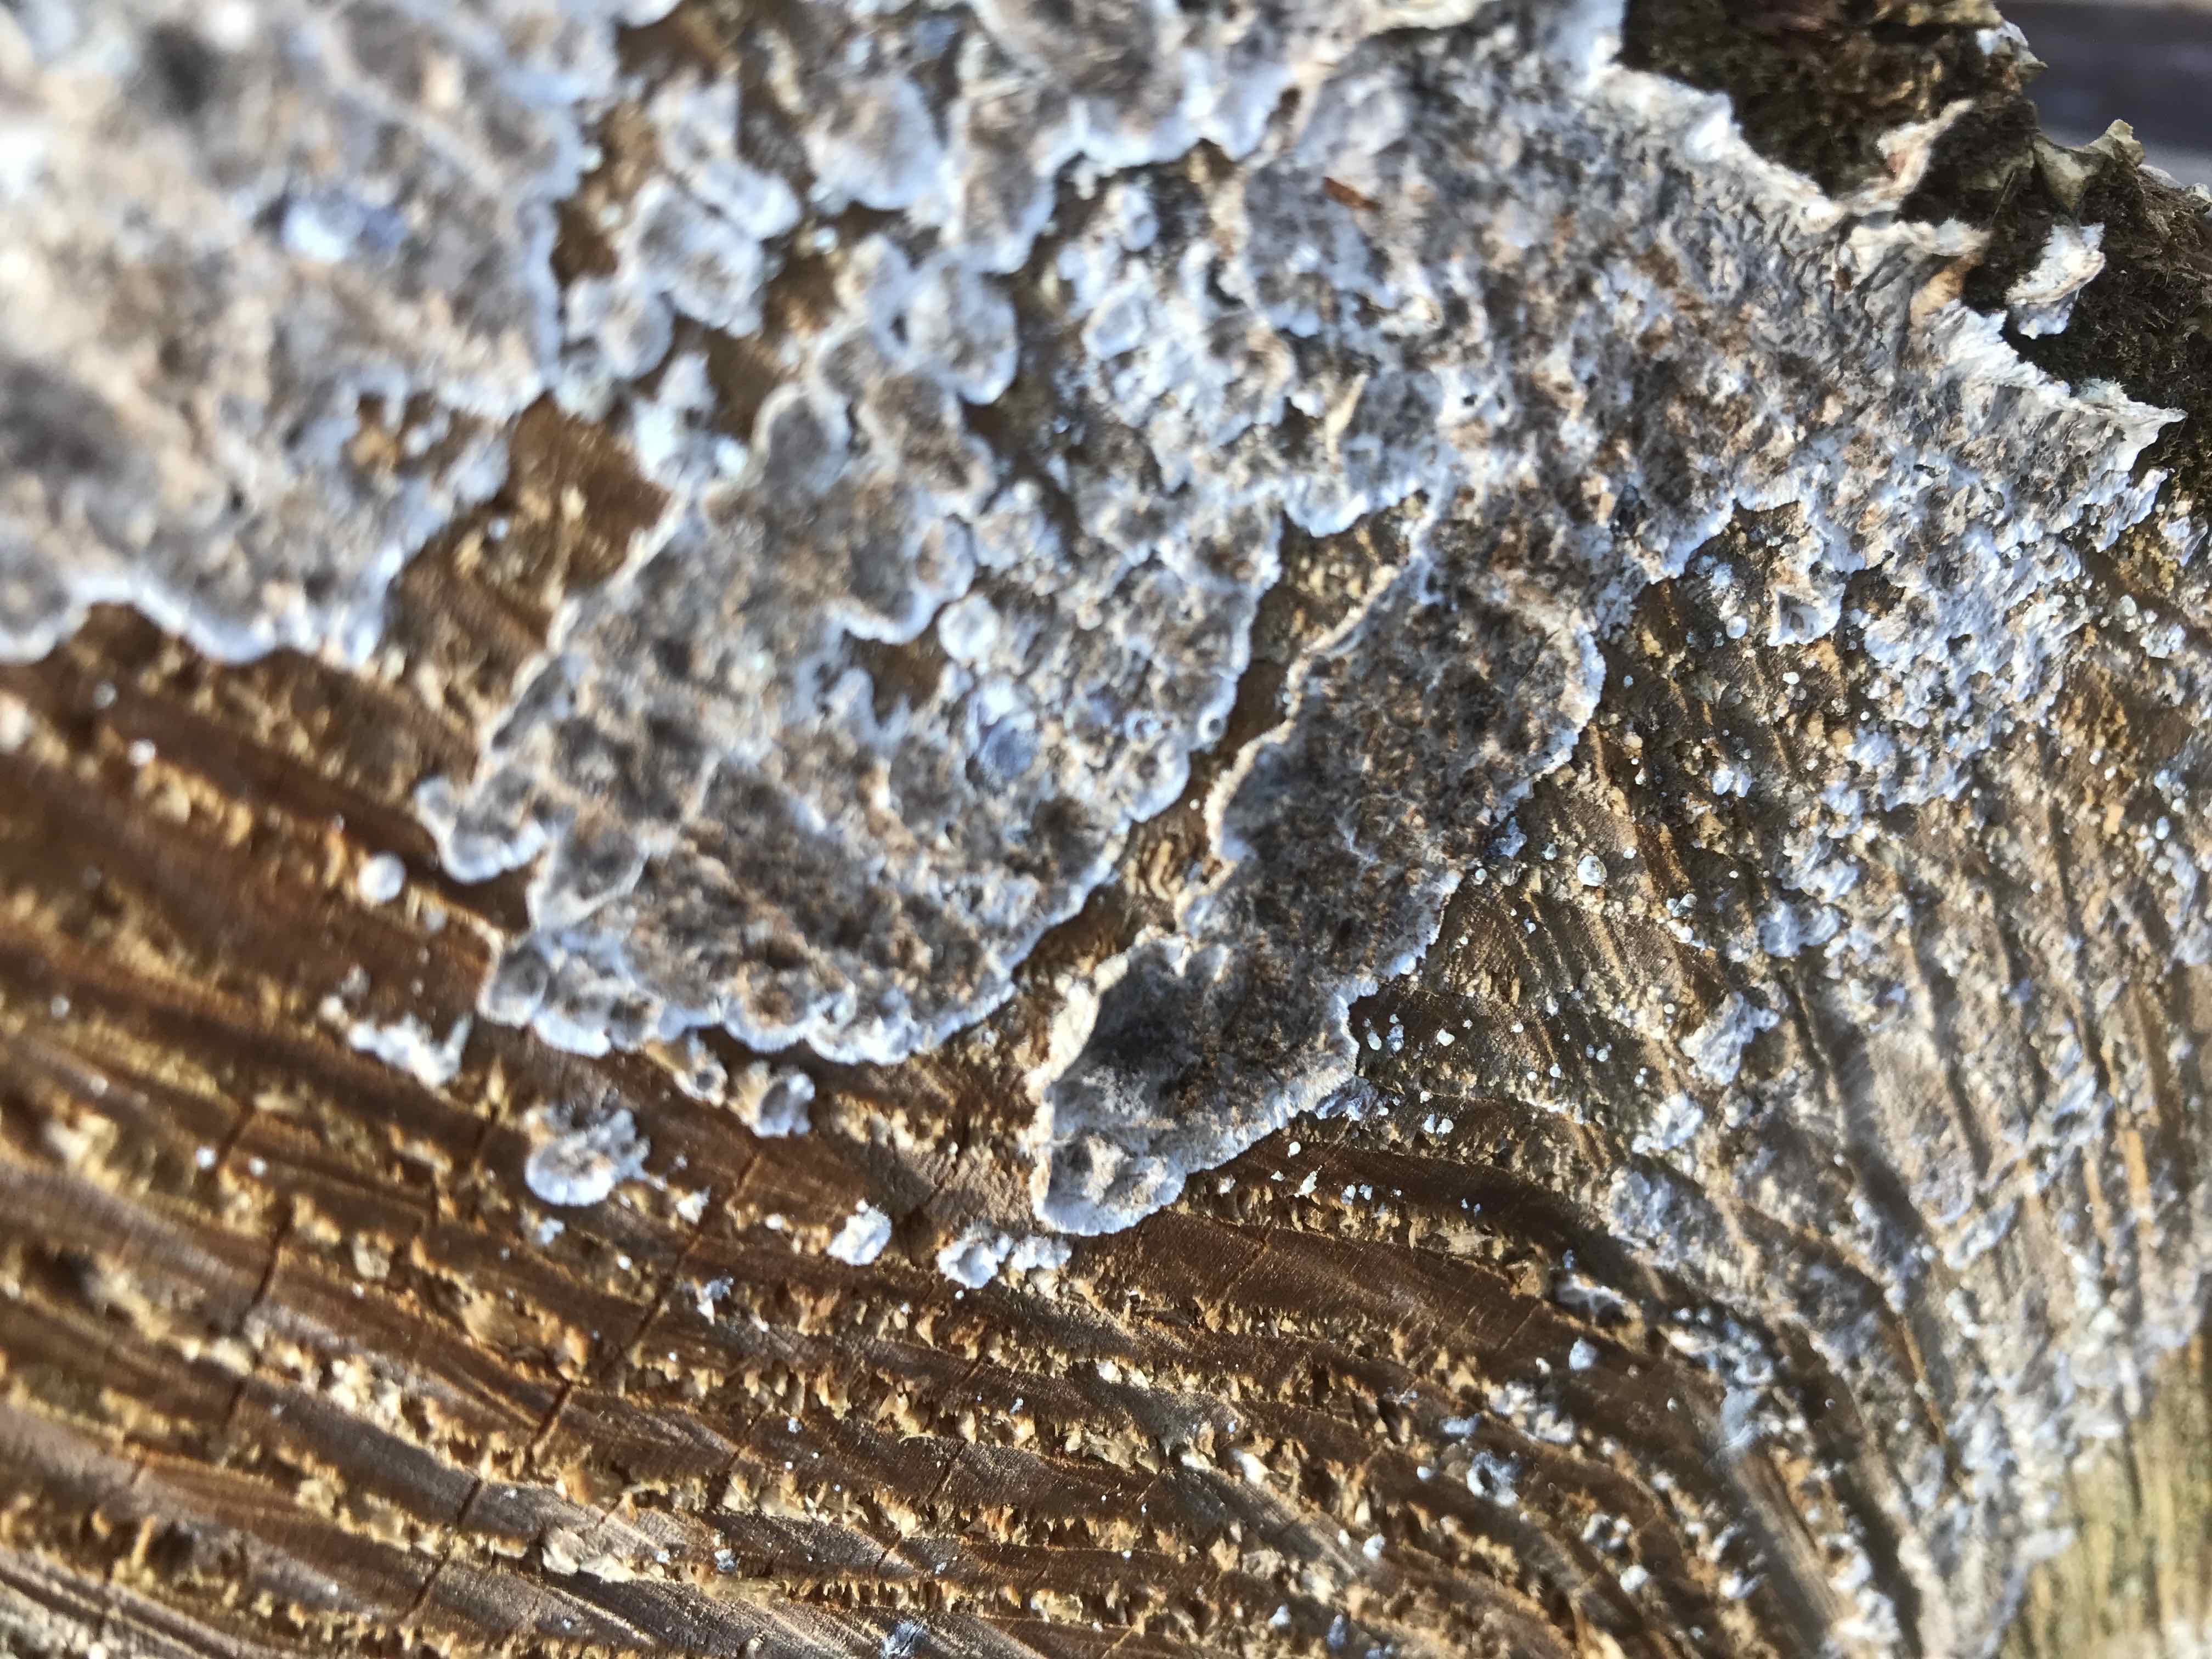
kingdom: Fungi
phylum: Basidiomycota
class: Agaricomycetes
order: Corticiales
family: Corticiaceae
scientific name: Corticiaceae
